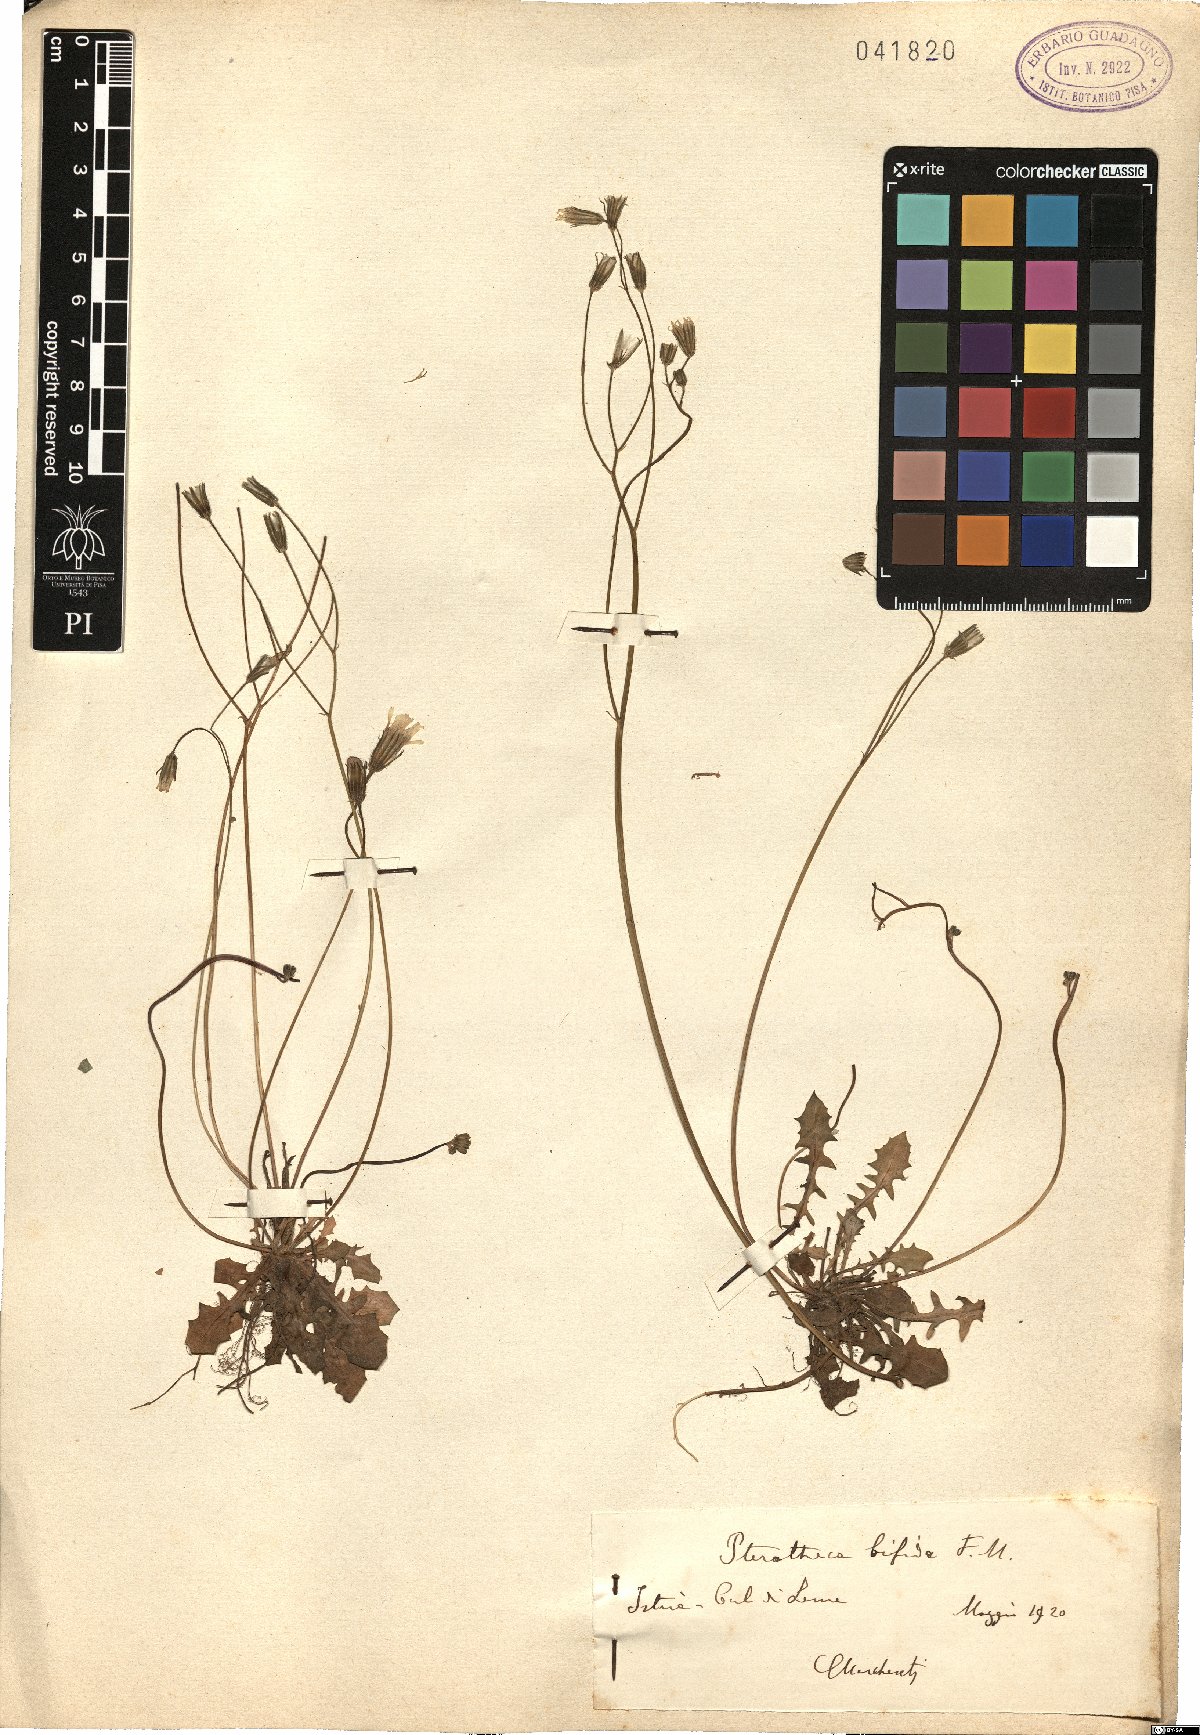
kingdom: Plantae
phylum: Tracheophyta
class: Magnoliopsida
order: Asterales
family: Asteraceae
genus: Crepis
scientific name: Crepis sancta
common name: Hawk's-beard
